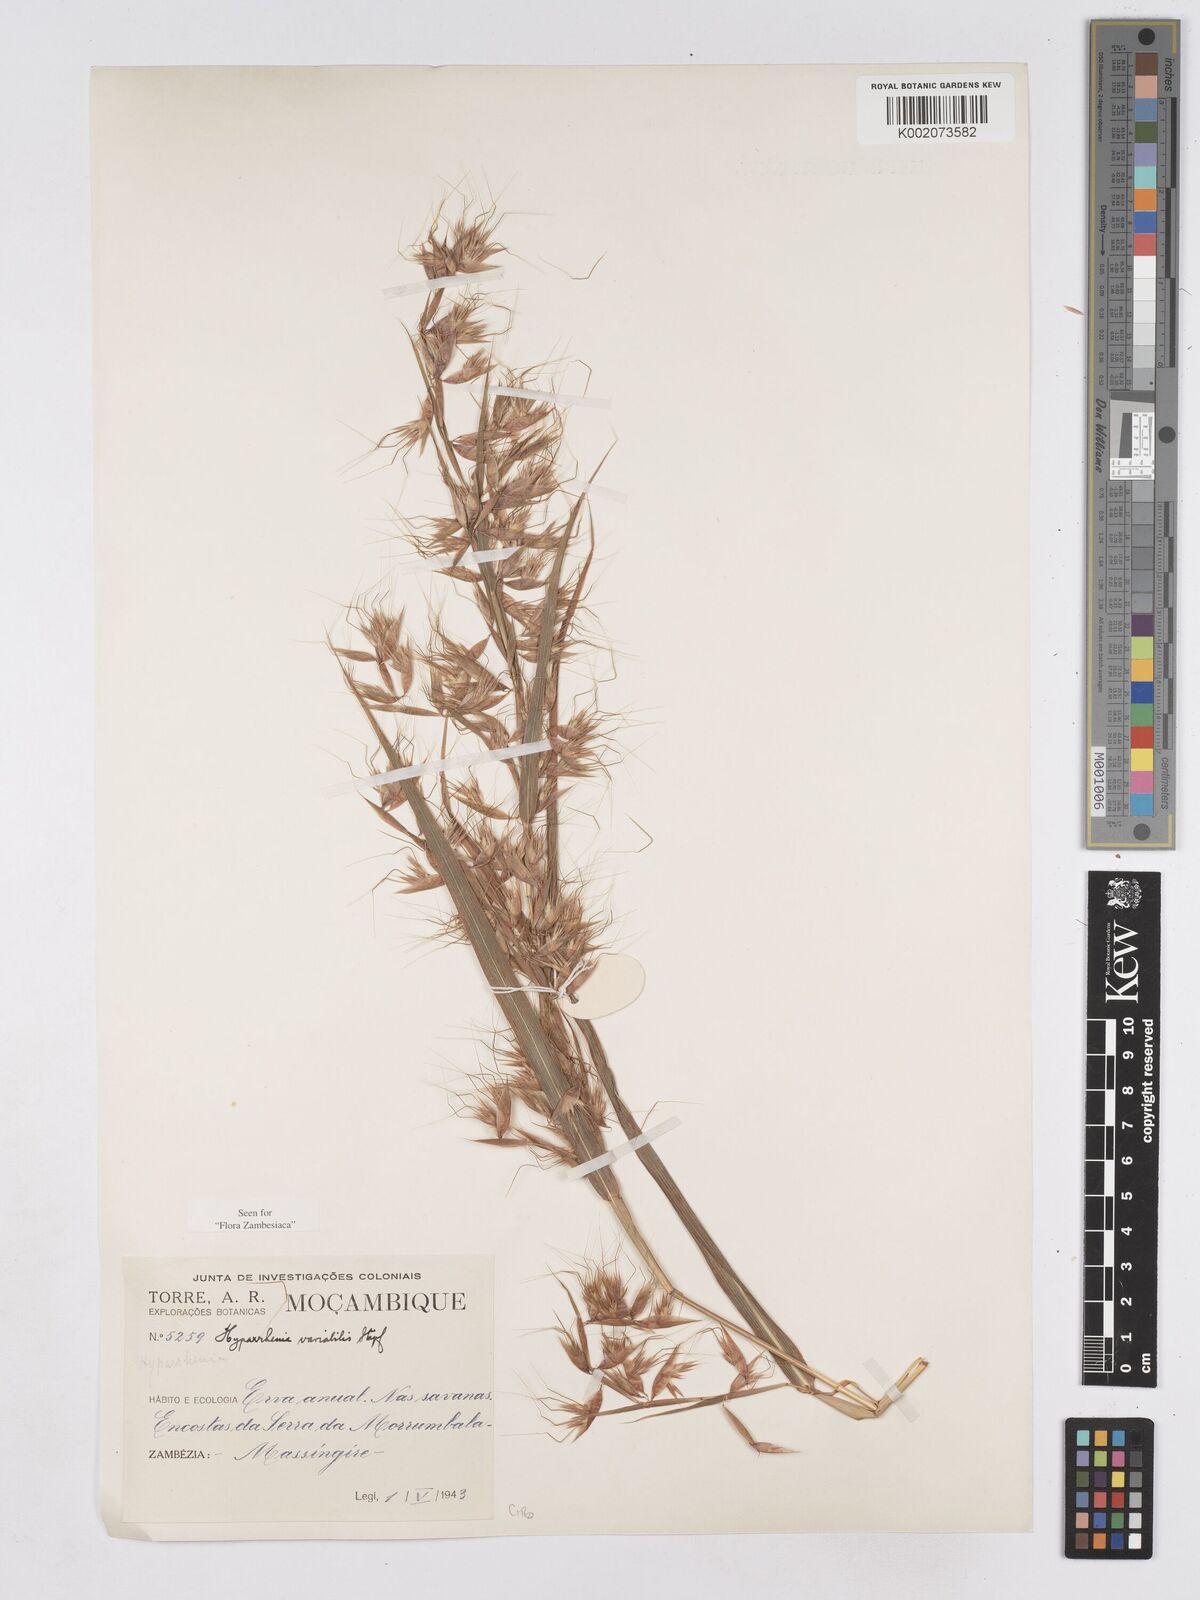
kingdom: Plantae
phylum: Tracheophyta
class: Liliopsida
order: Poales
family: Poaceae
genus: Hyparrhenia
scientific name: Hyparrhenia variabilis
